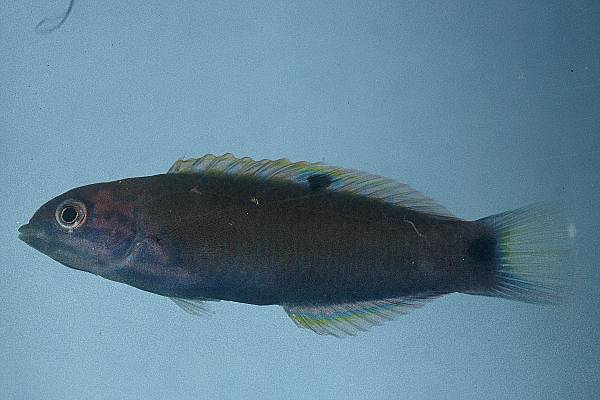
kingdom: Animalia
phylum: Chordata
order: Perciformes
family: Labridae
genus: Thalassoma
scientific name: Thalassoma lunare
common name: Blue wrasse
